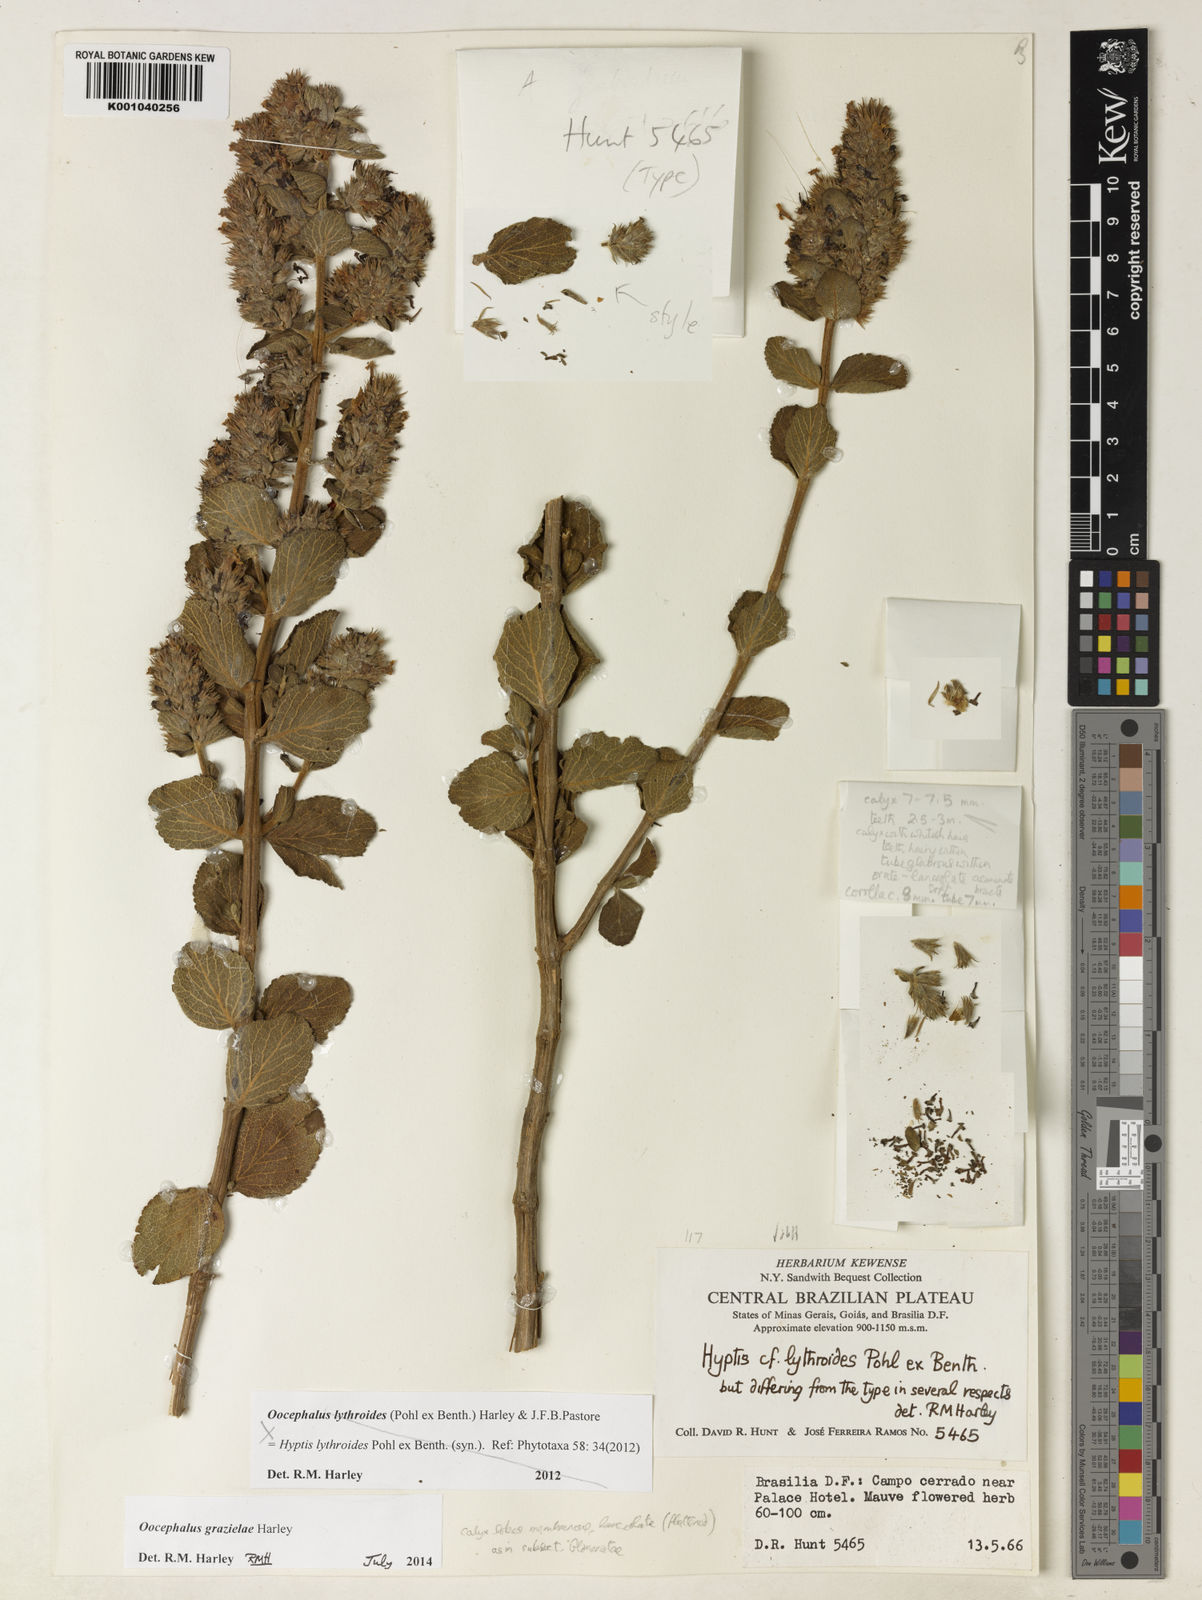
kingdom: Plantae
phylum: Tracheophyta
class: Magnoliopsida
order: Lamiales
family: Lamiaceae
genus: Oocephalus
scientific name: Oocephalus grazielae
